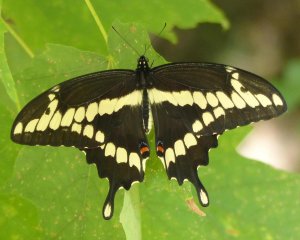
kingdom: Animalia
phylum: Arthropoda
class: Insecta
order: Lepidoptera
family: Papilionidae
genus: Papilio
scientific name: Papilio cresphontes
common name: Eastern Giant Swallowtail
